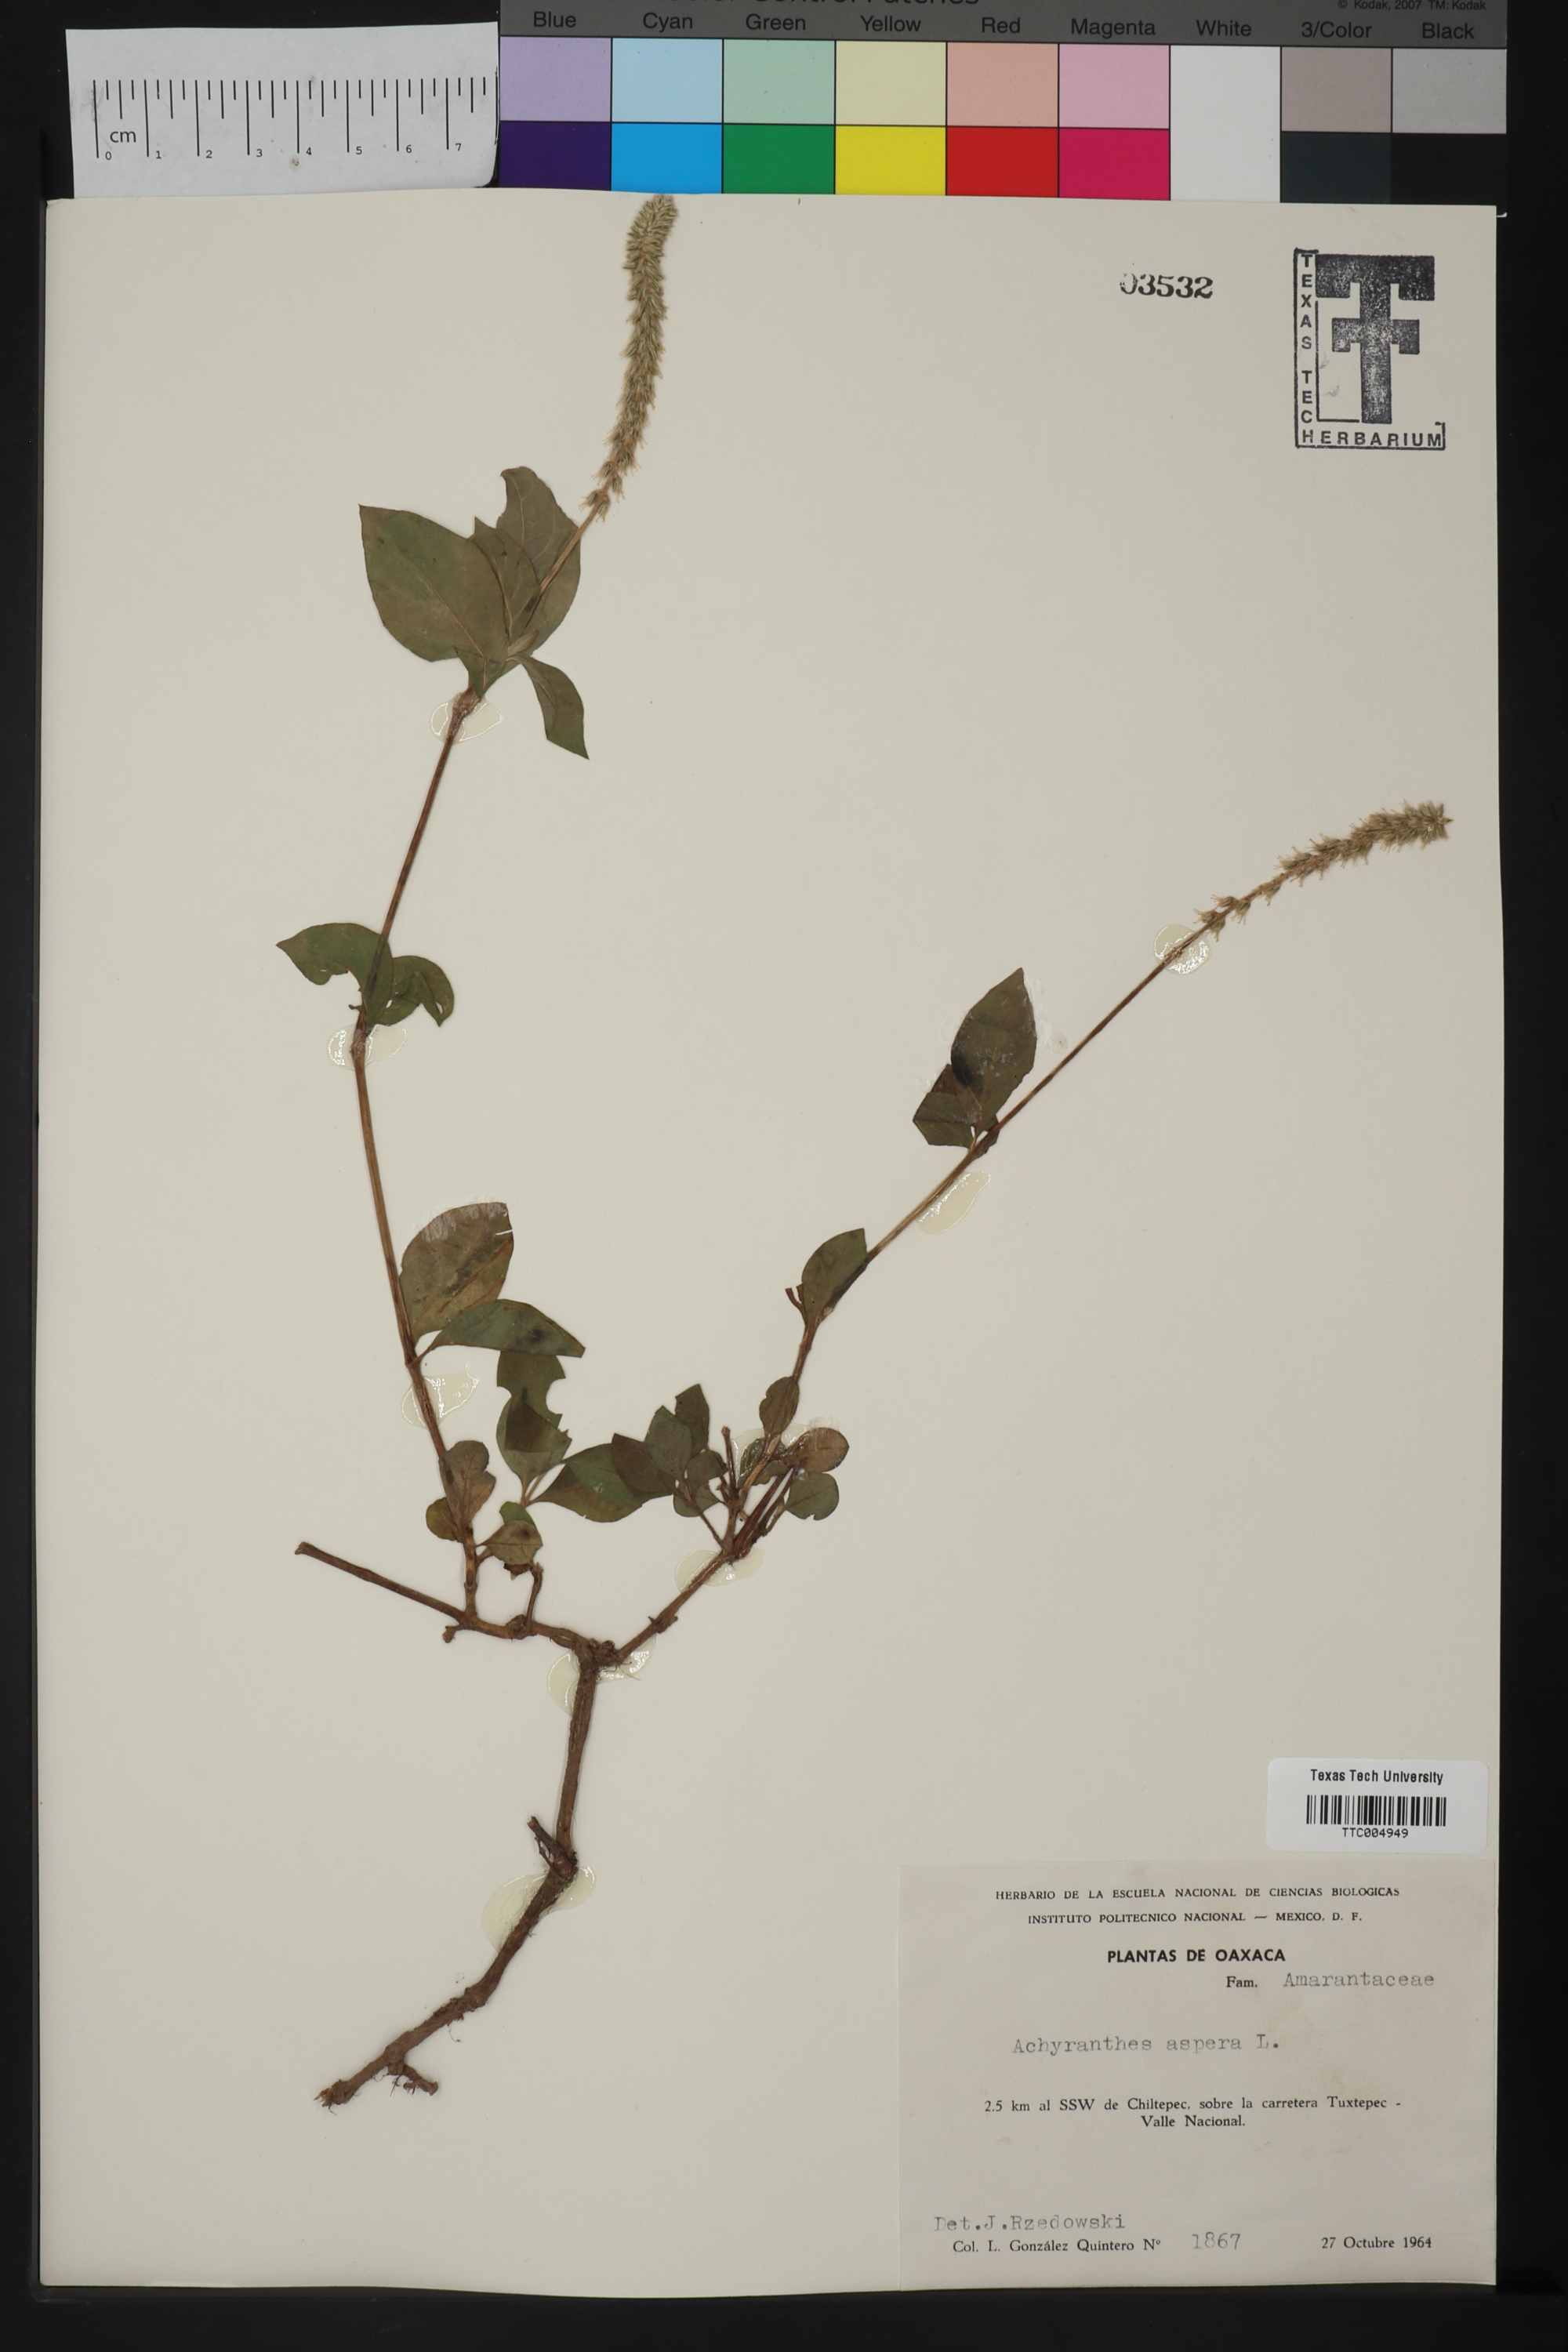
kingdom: Plantae
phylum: Tracheophyta
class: Magnoliopsida
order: Caryophyllales
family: Amaranthaceae
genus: Achyranthes
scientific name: Achyranthes aspera
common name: Devil's horsewhip
